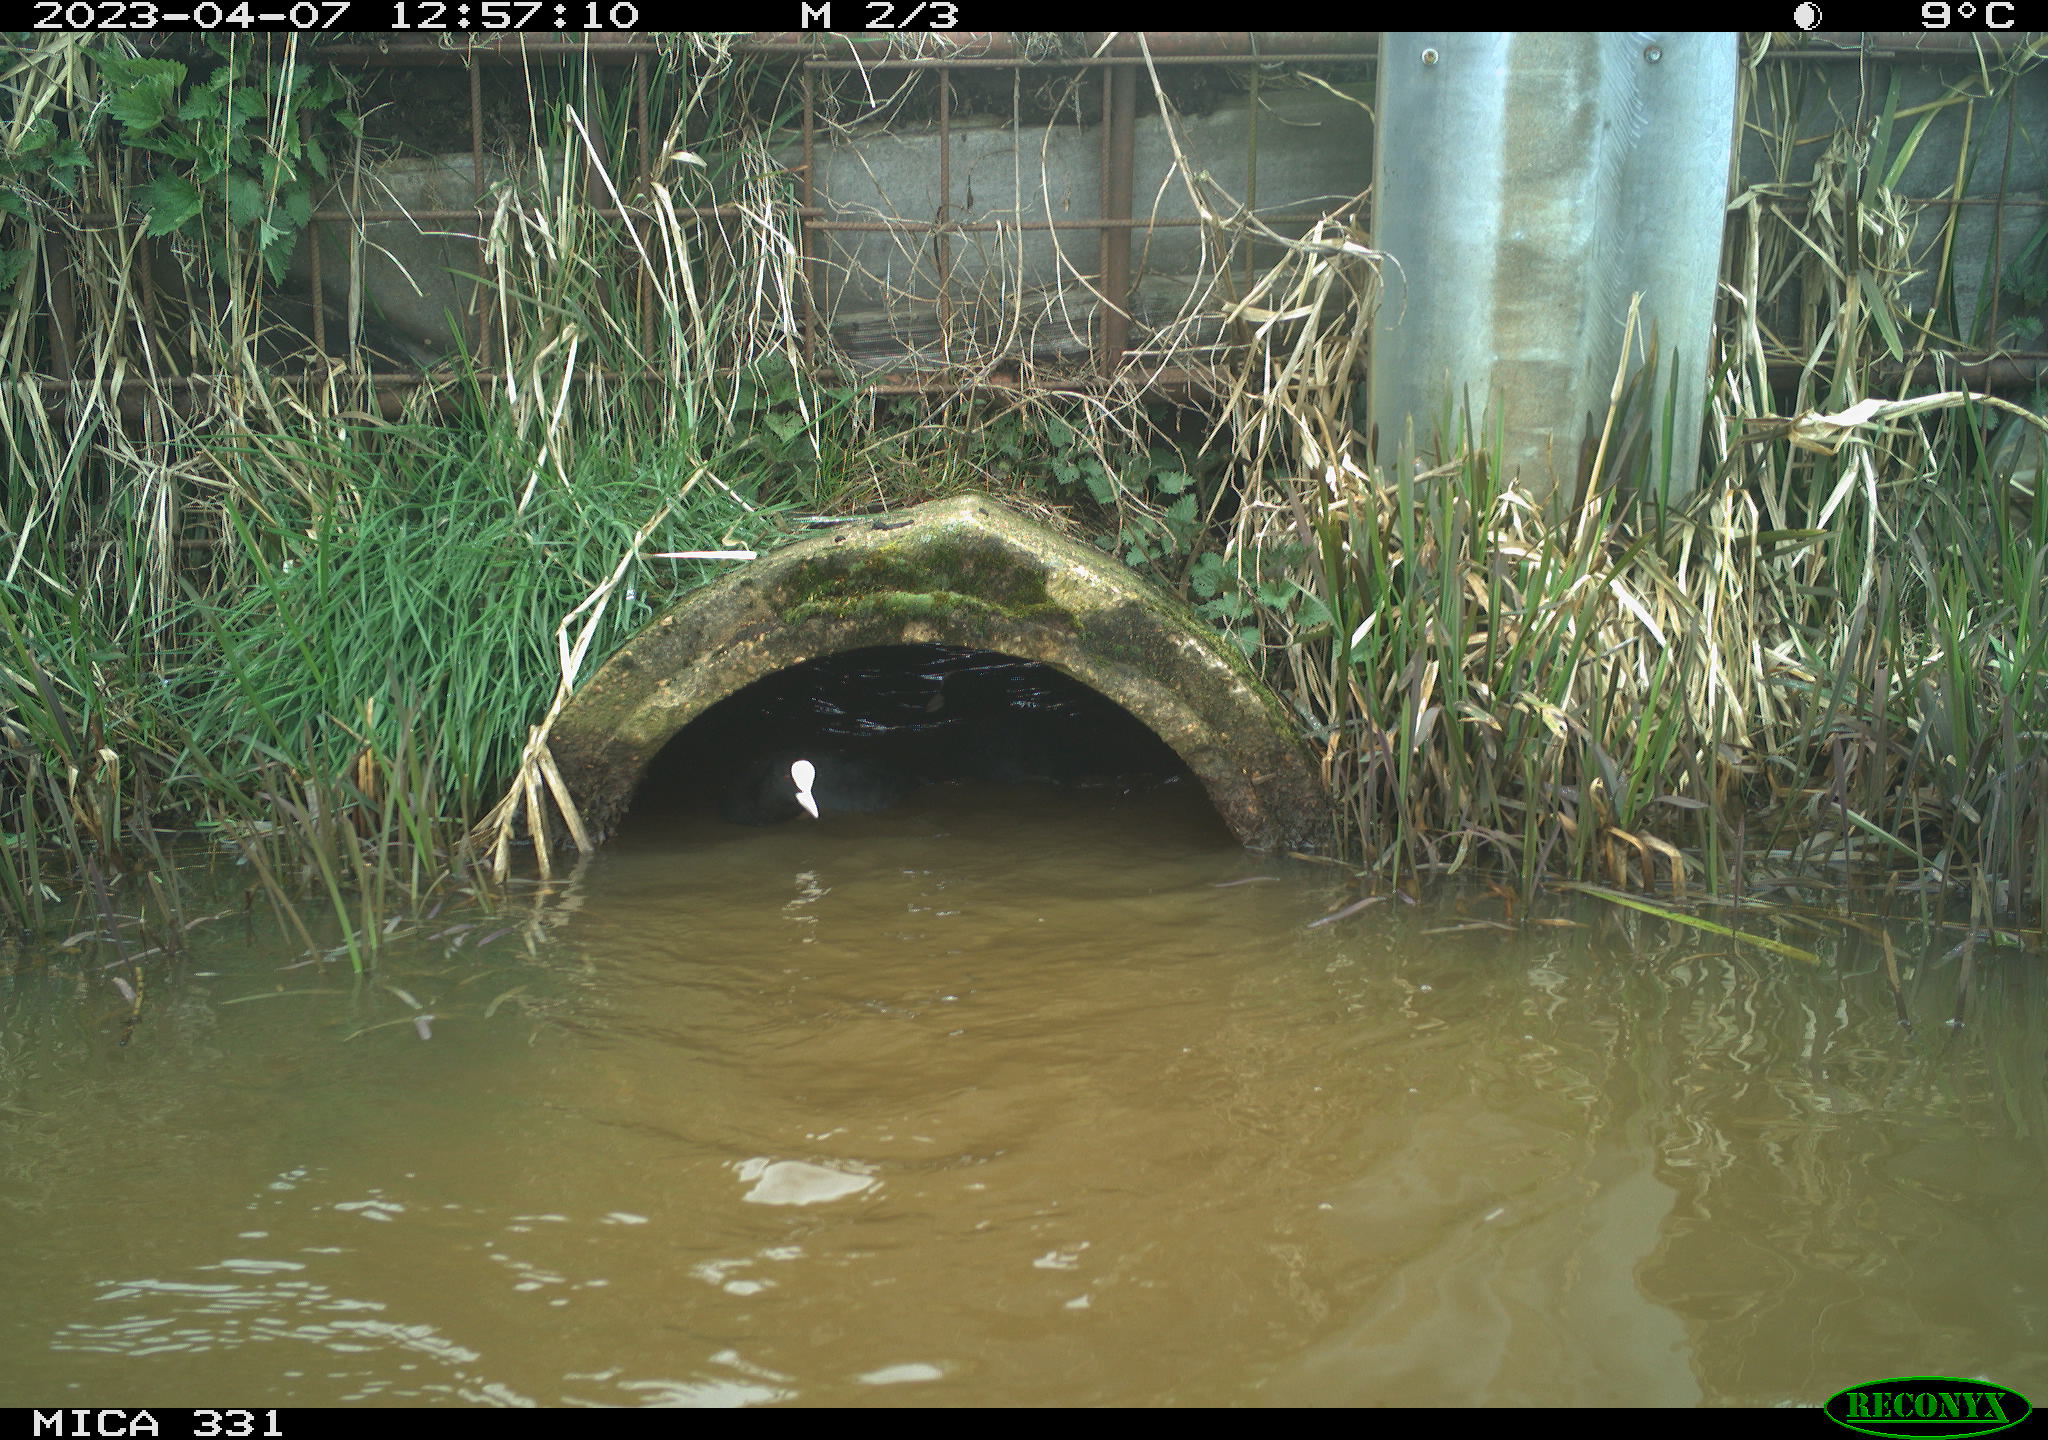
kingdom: Animalia
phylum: Chordata
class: Aves
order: Gruiformes
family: Rallidae
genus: Gallinula
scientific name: Gallinula chloropus
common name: Common moorhen
